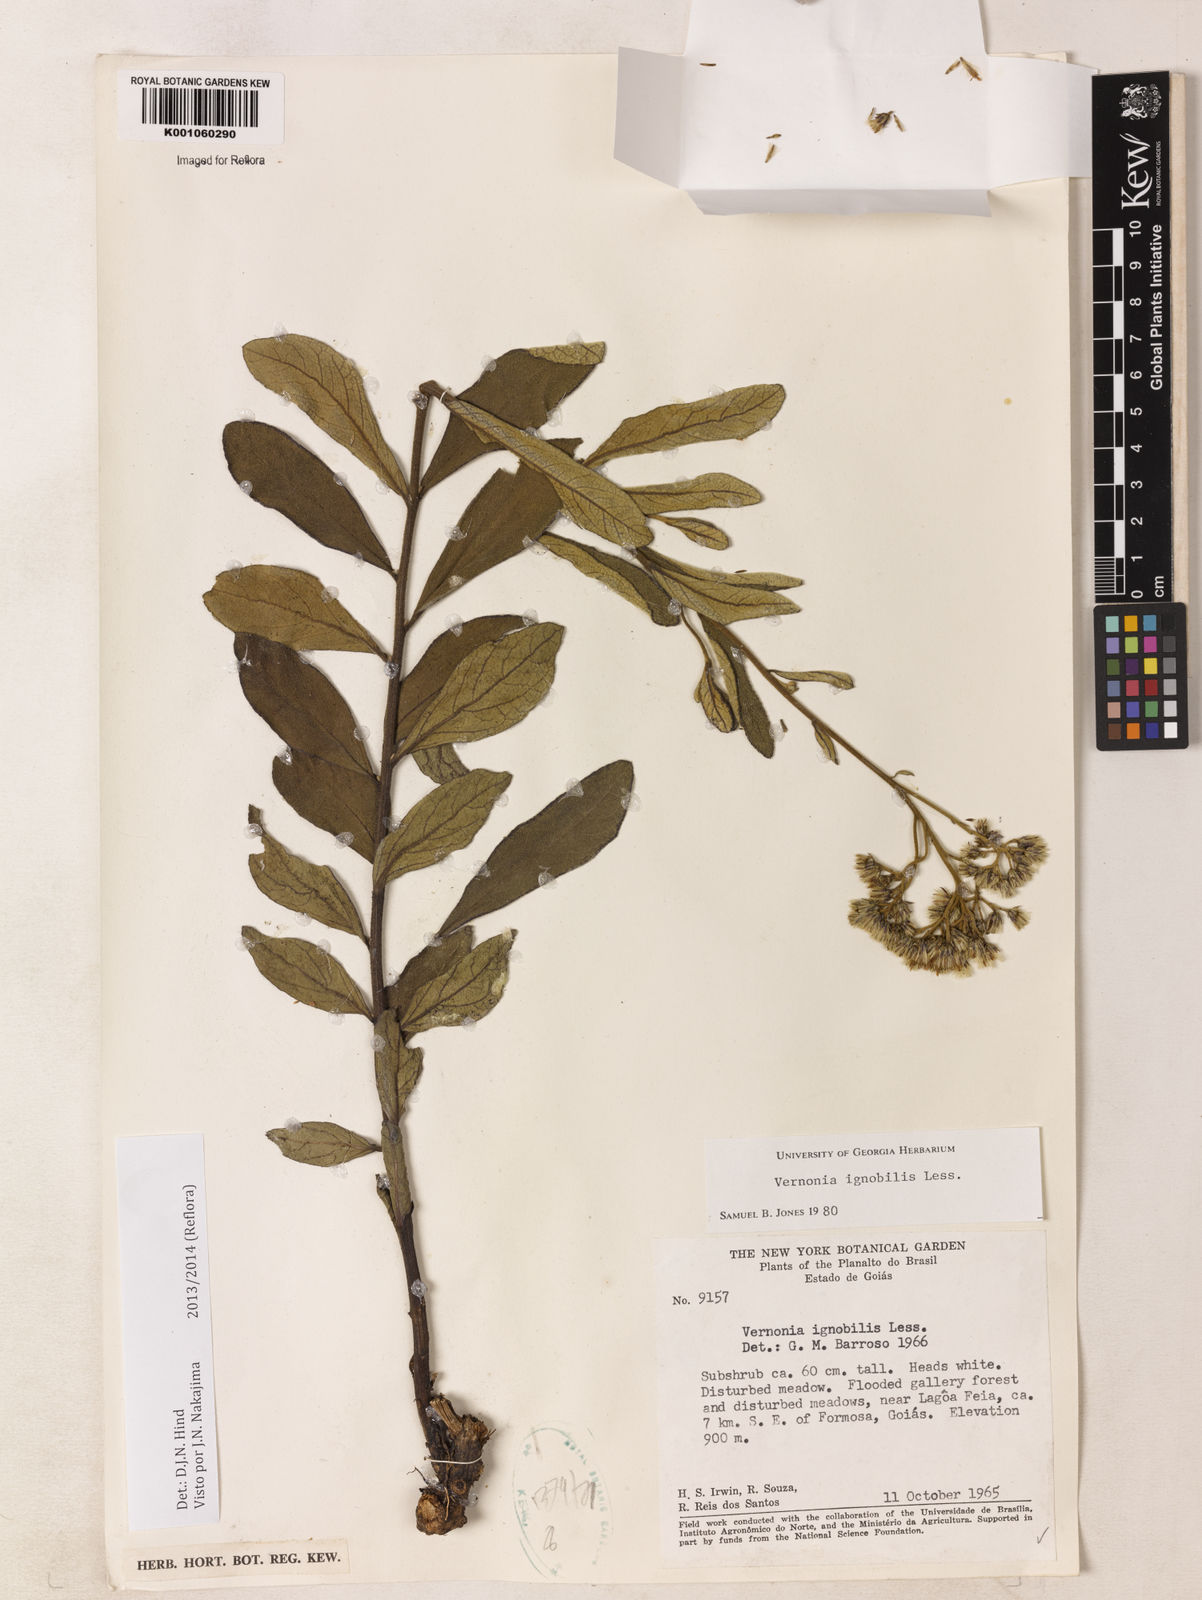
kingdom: Plantae
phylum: Tracheophyta
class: Magnoliopsida
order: Asterales
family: Asteraceae
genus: Vernonanthura
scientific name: Vernonanthura ignobilis
